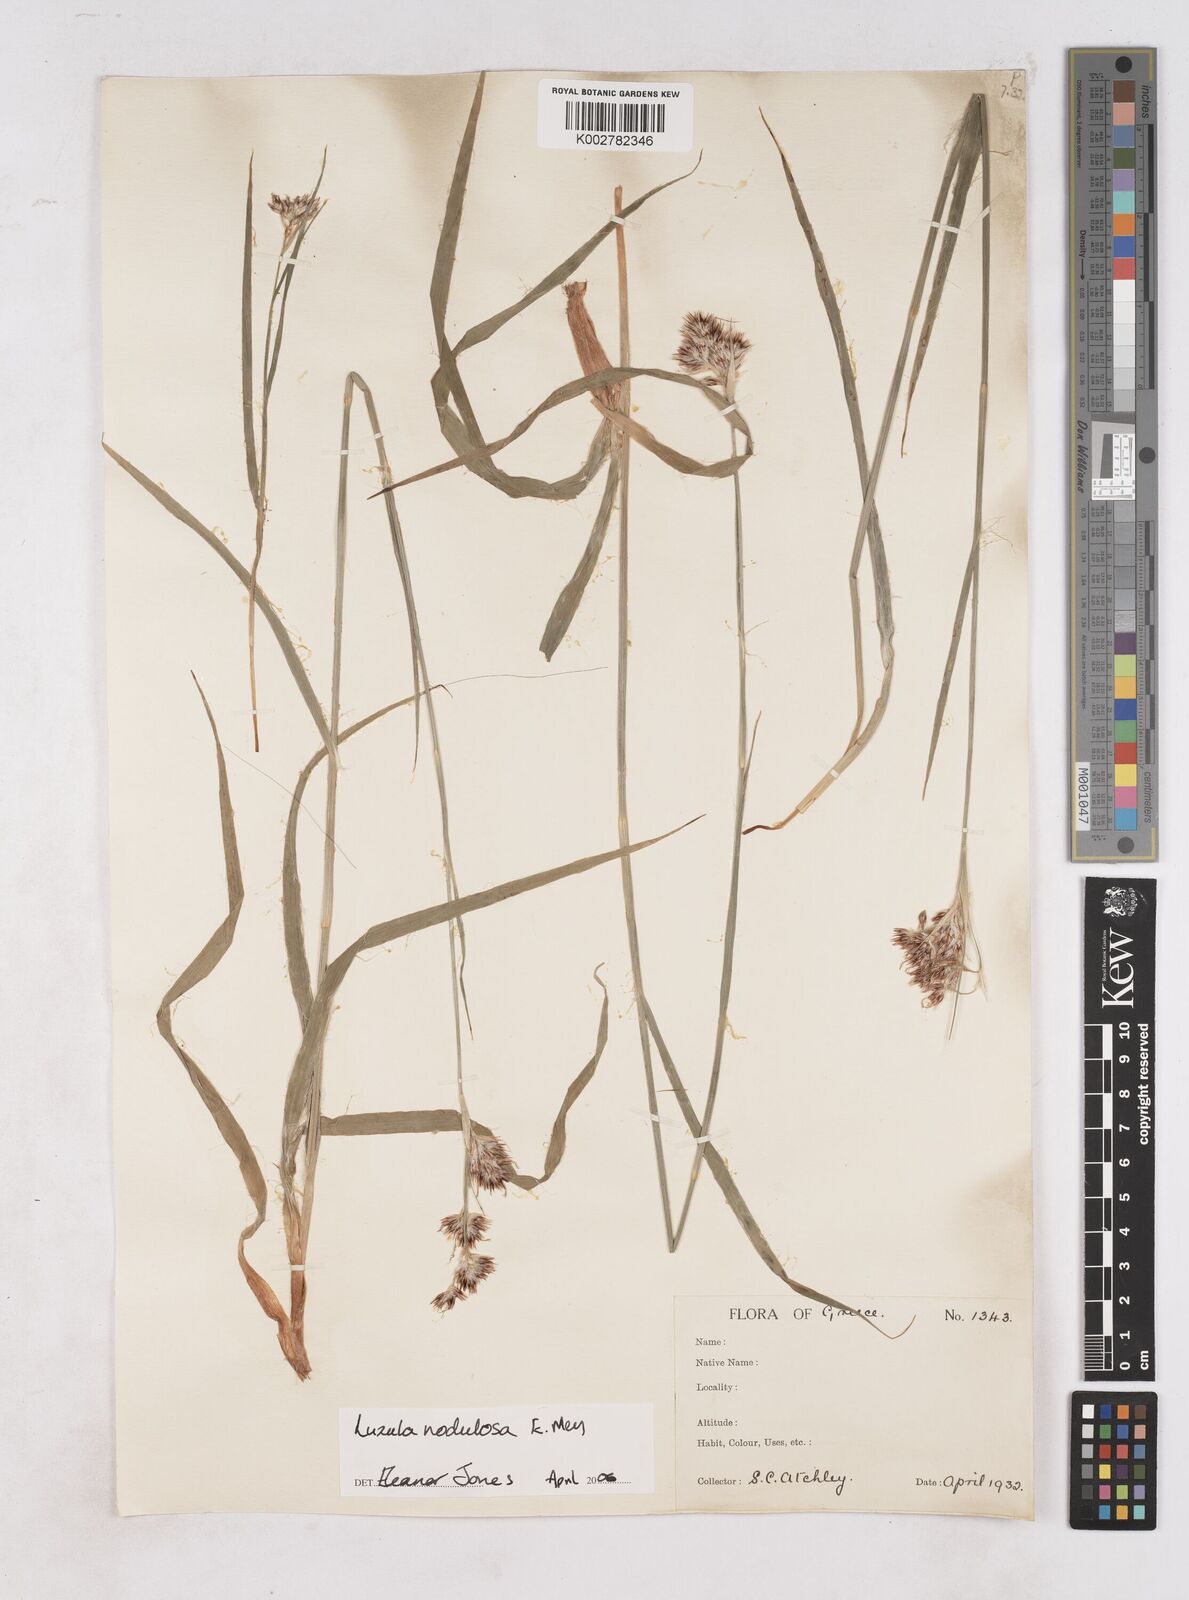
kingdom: Plantae
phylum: Tracheophyta
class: Liliopsida
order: Poales
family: Juncaceae
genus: Luzula
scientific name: Luzula nodulosa
